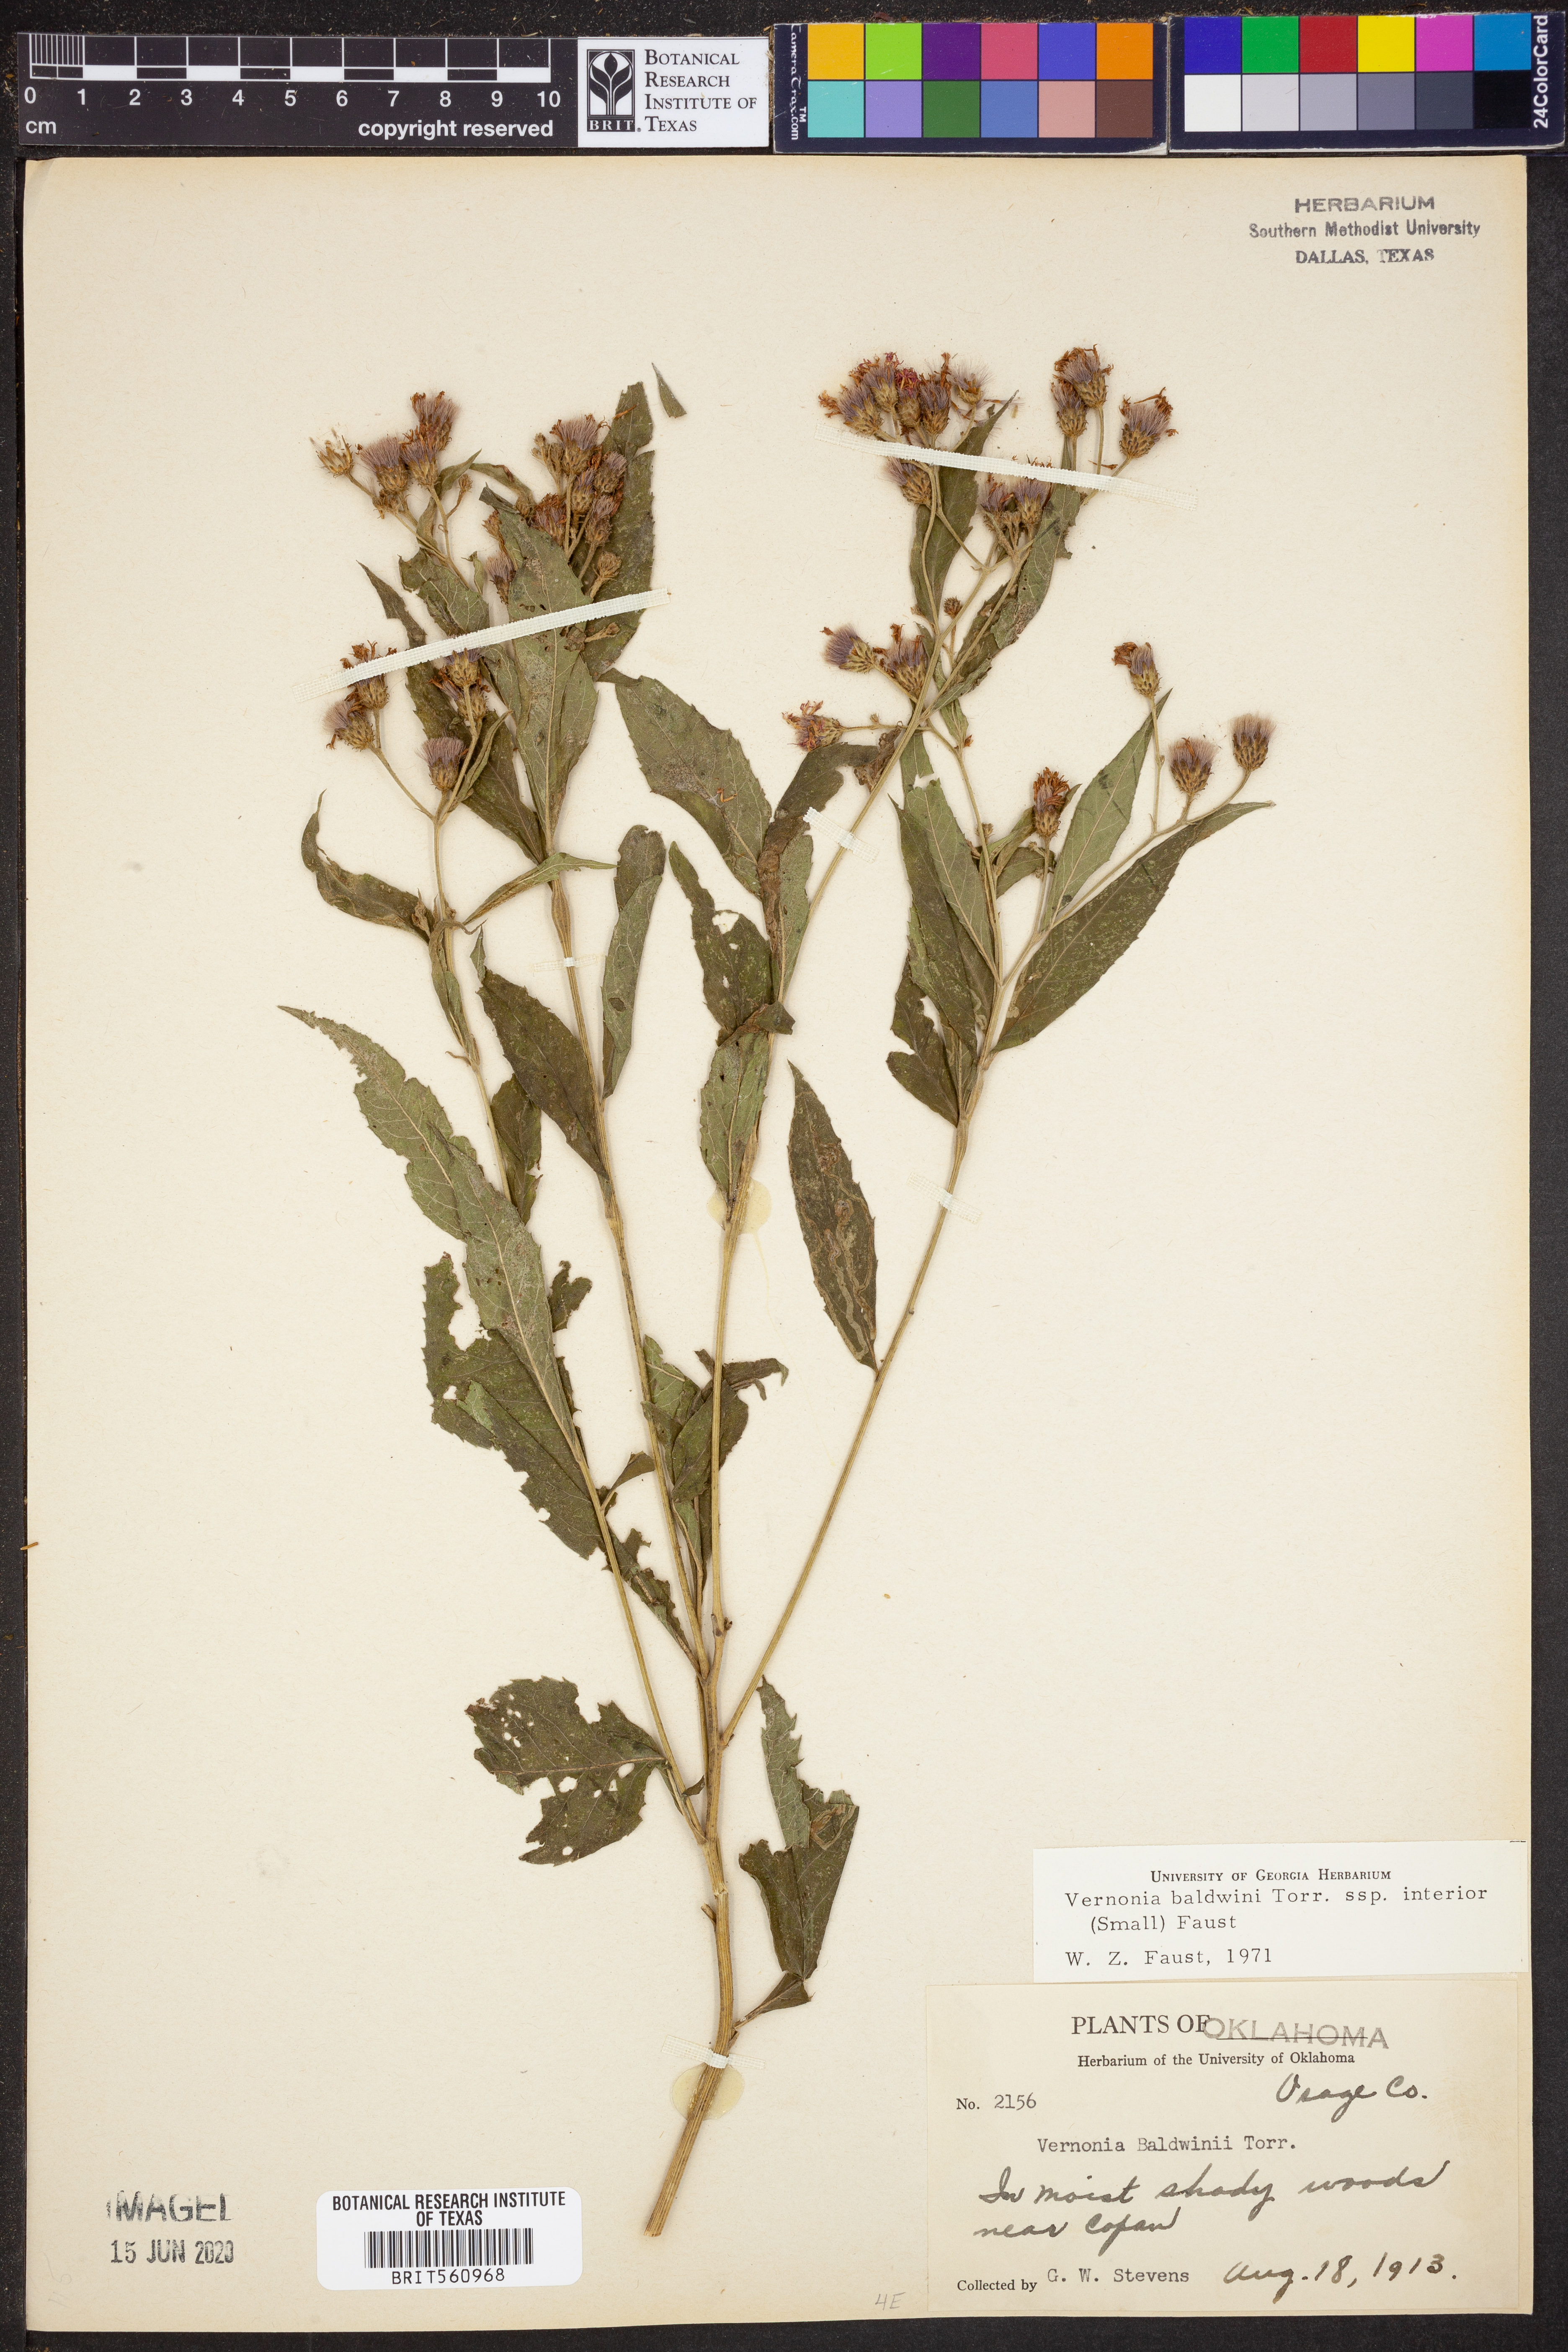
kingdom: Plantae
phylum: Tracheophyta
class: Magnoliopsida
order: Asterales
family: Asteraceae
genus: Vernonia
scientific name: Vernonia baldwinii
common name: Western ironweed
